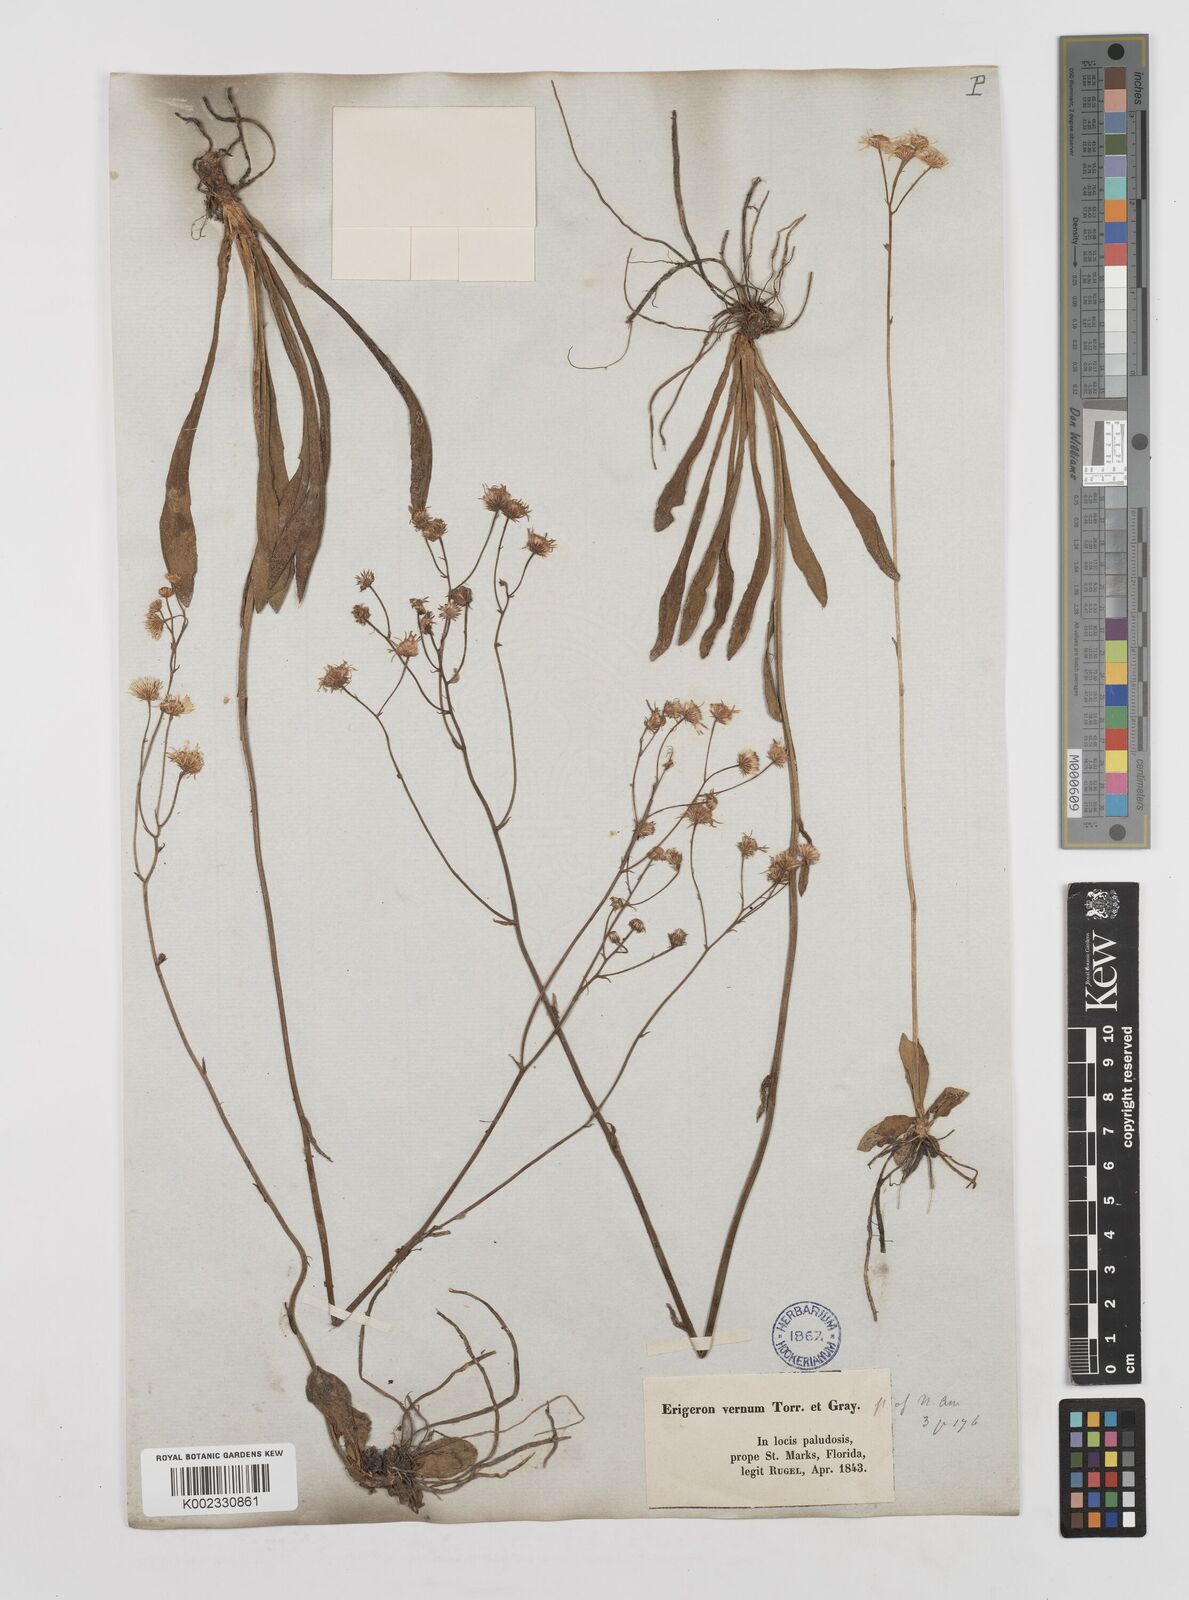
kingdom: Plantae
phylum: Tracheophyta
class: Magnoliopsida
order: Asterales
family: Asteraceae
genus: Erigeron
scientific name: Erigeron vernus
